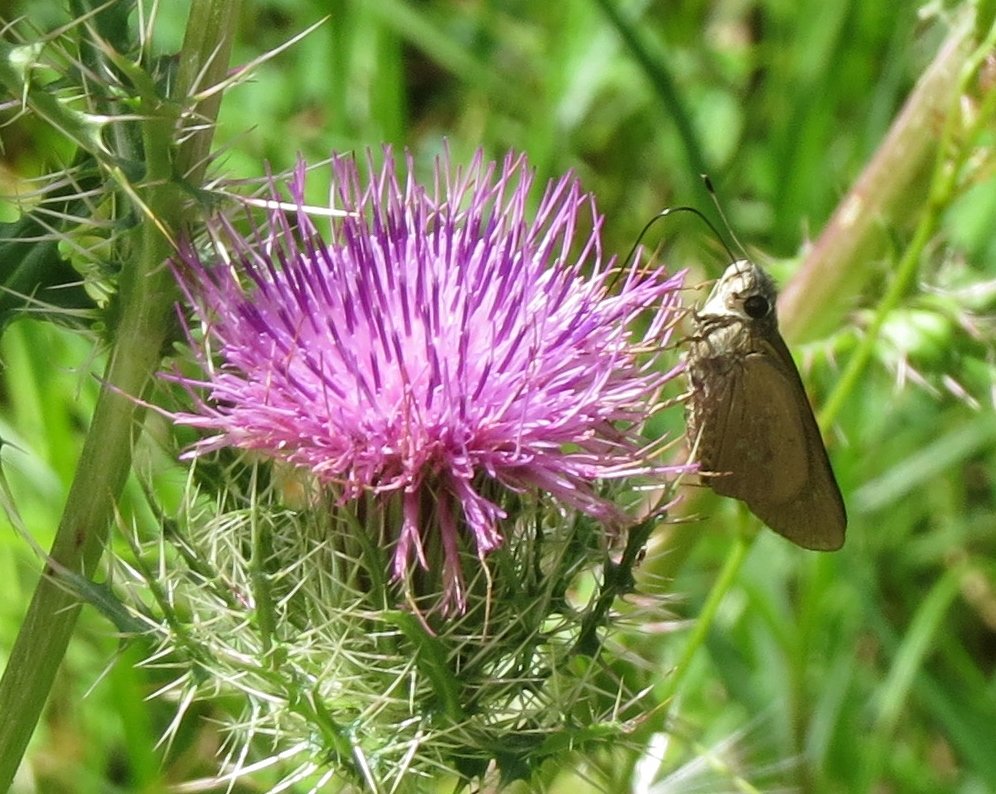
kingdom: Animalia
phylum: Arthropoda
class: Insecta
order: Lepidoptera
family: Hesperiidae
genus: Calpodes
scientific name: Calpodes ethlius
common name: Brazilian Skipper
